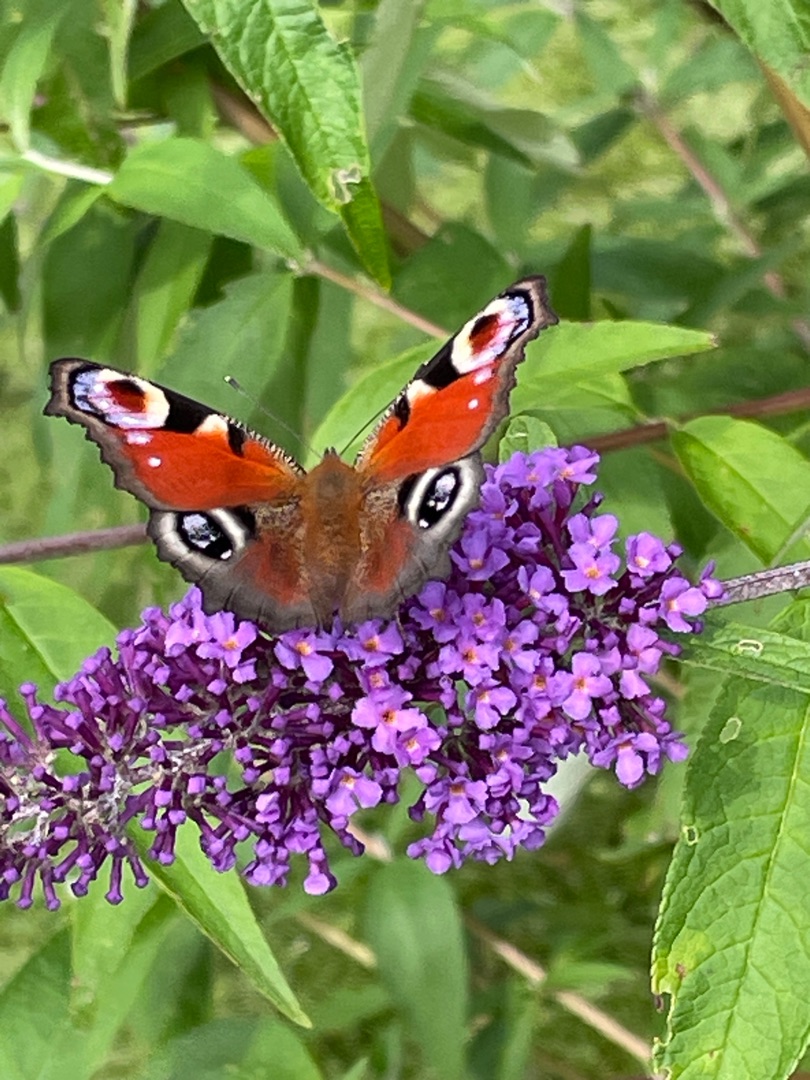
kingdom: Animalia
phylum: Arthropoda
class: Insecta
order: Lepidoptera
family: Nymphalidae
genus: Aglais
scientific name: Aglais io
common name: Dagpåfugleøje
